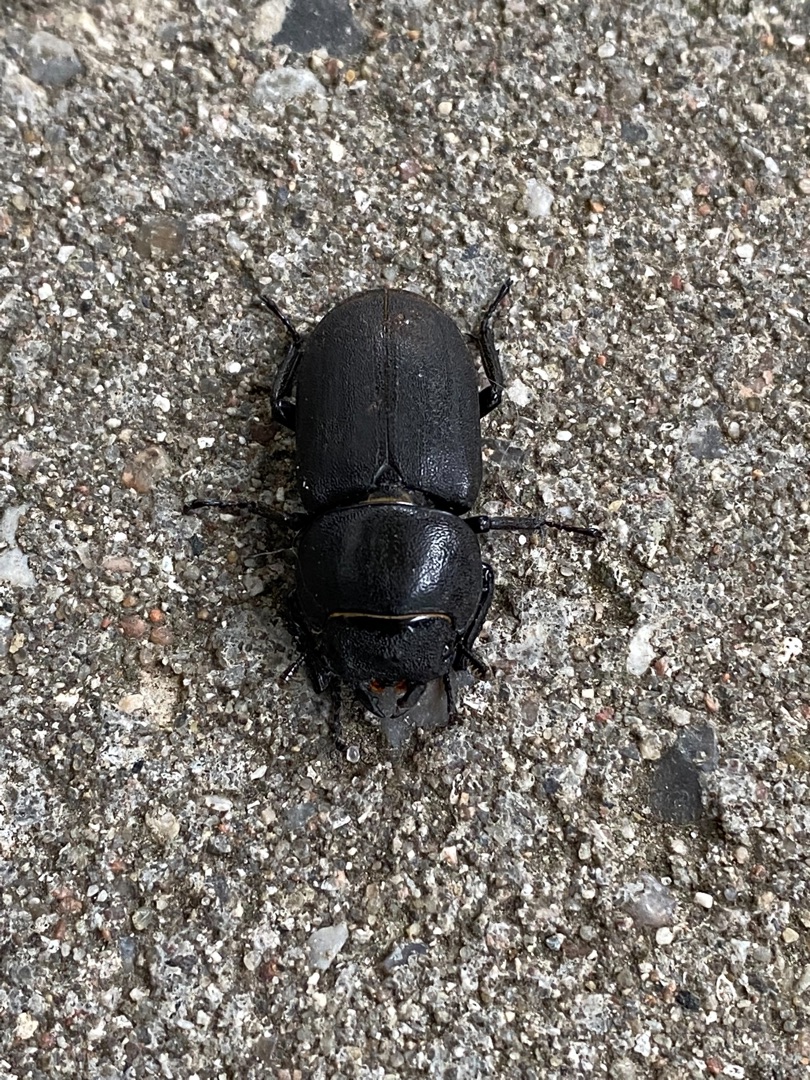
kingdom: Animalia
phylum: Arthropoda
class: Insecta
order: Coleoptera
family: Lucanidae
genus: Dorcus
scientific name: Dorcus parallelipipedus
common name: Bøghjort
